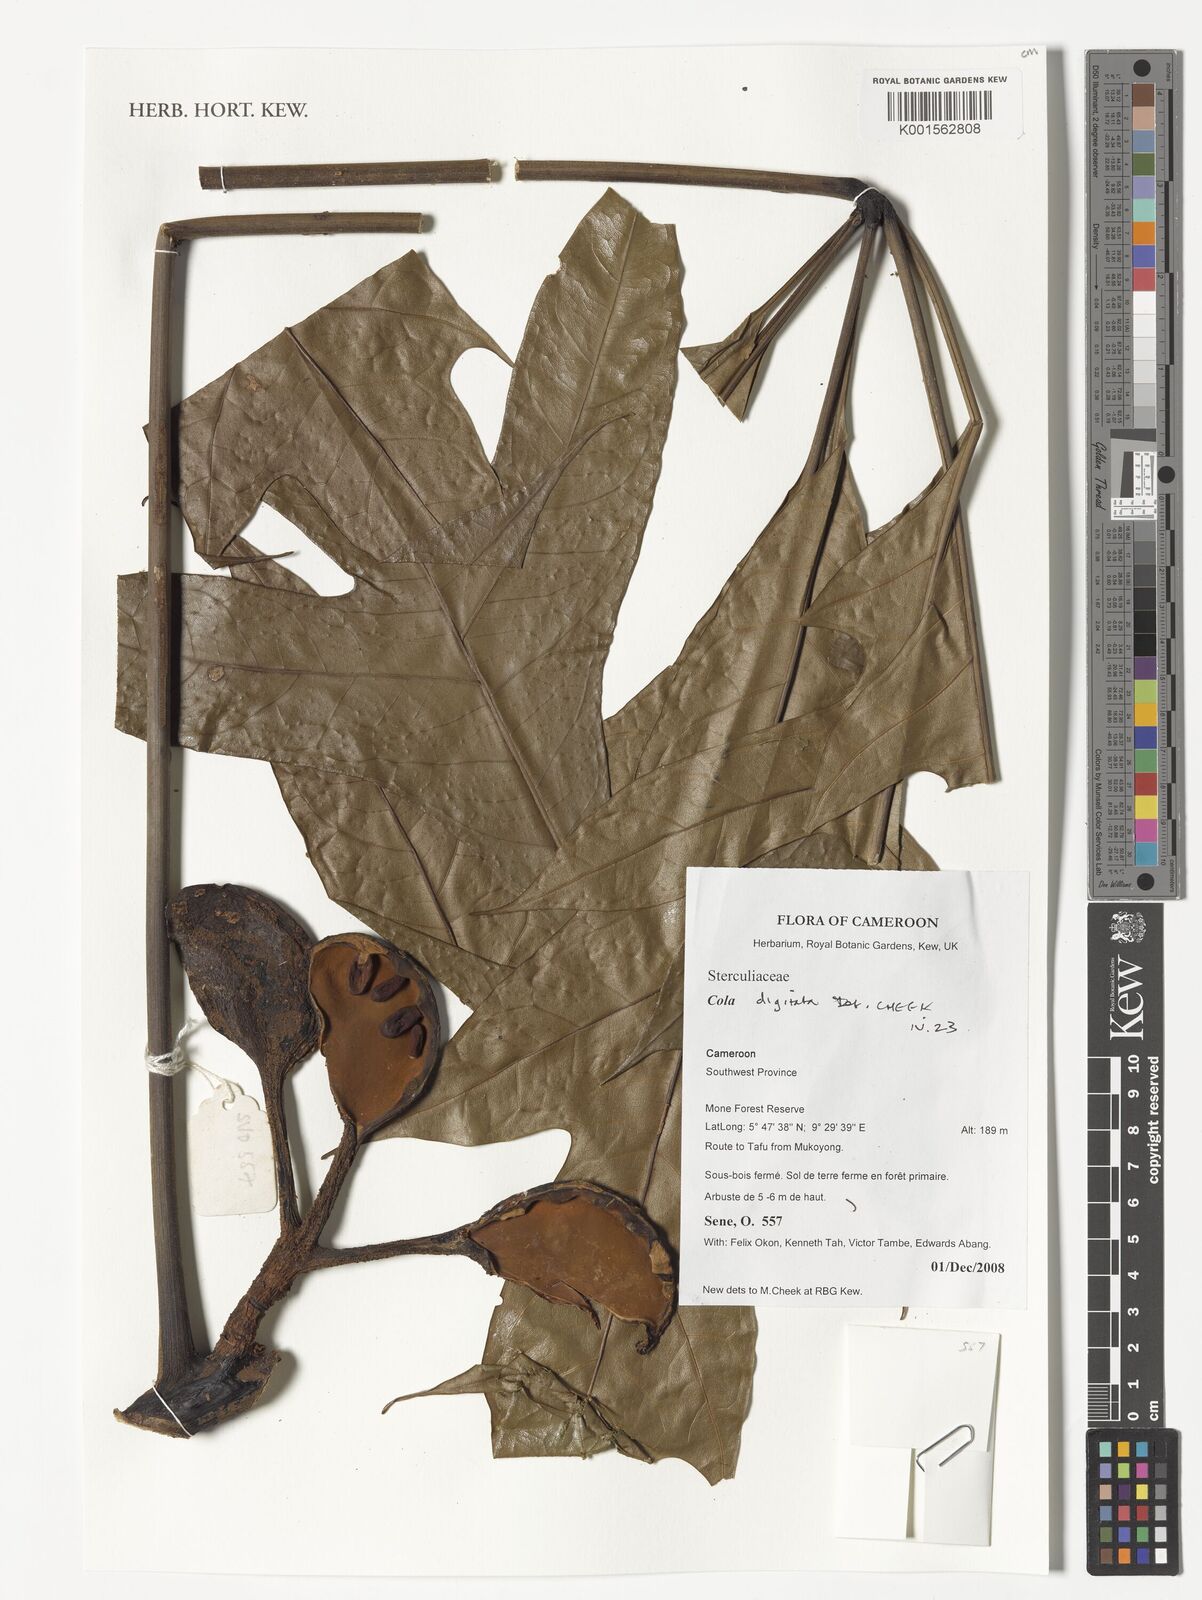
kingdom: Plantae
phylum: Tracheophyta
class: Magnoliopsida
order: Malvales
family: Malvaceae
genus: Cola
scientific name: Cola digitata
